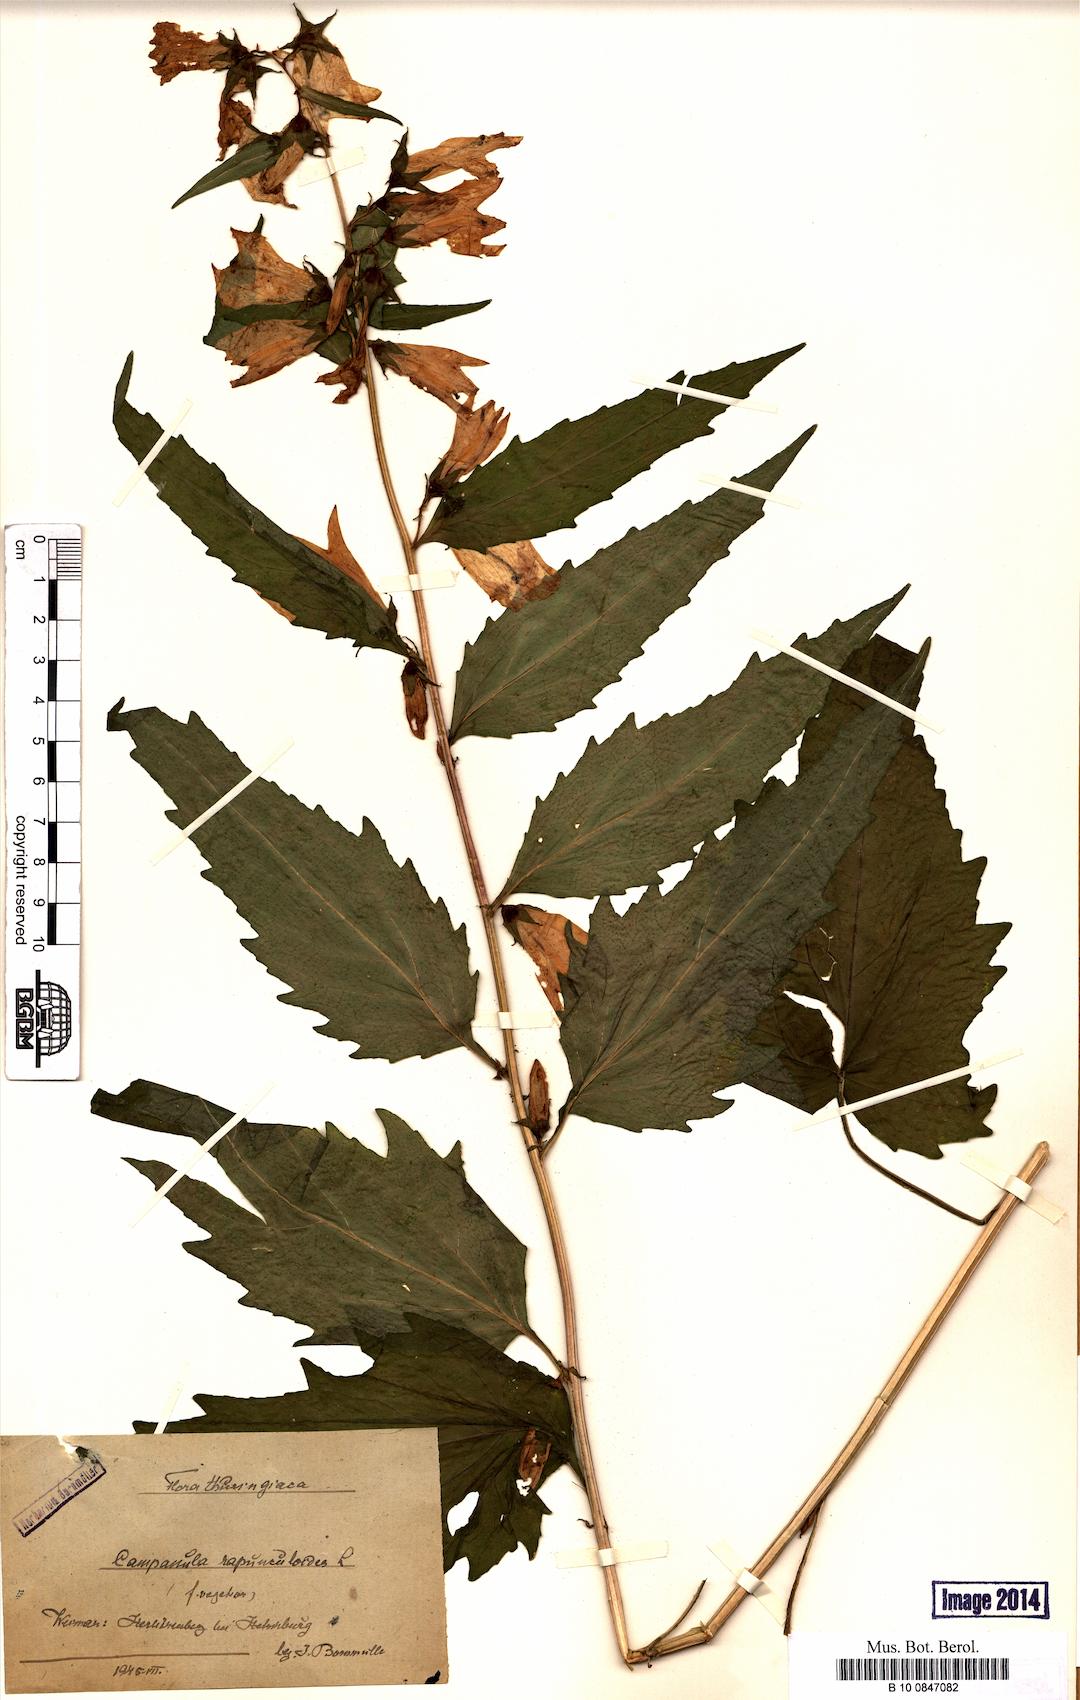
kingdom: Plantae
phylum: Tracheophyta
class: Magnoliopsida
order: Asterales
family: Campanulaceae
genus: Campanula
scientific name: Campanula rapunculoides
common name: Creeping bellflower
